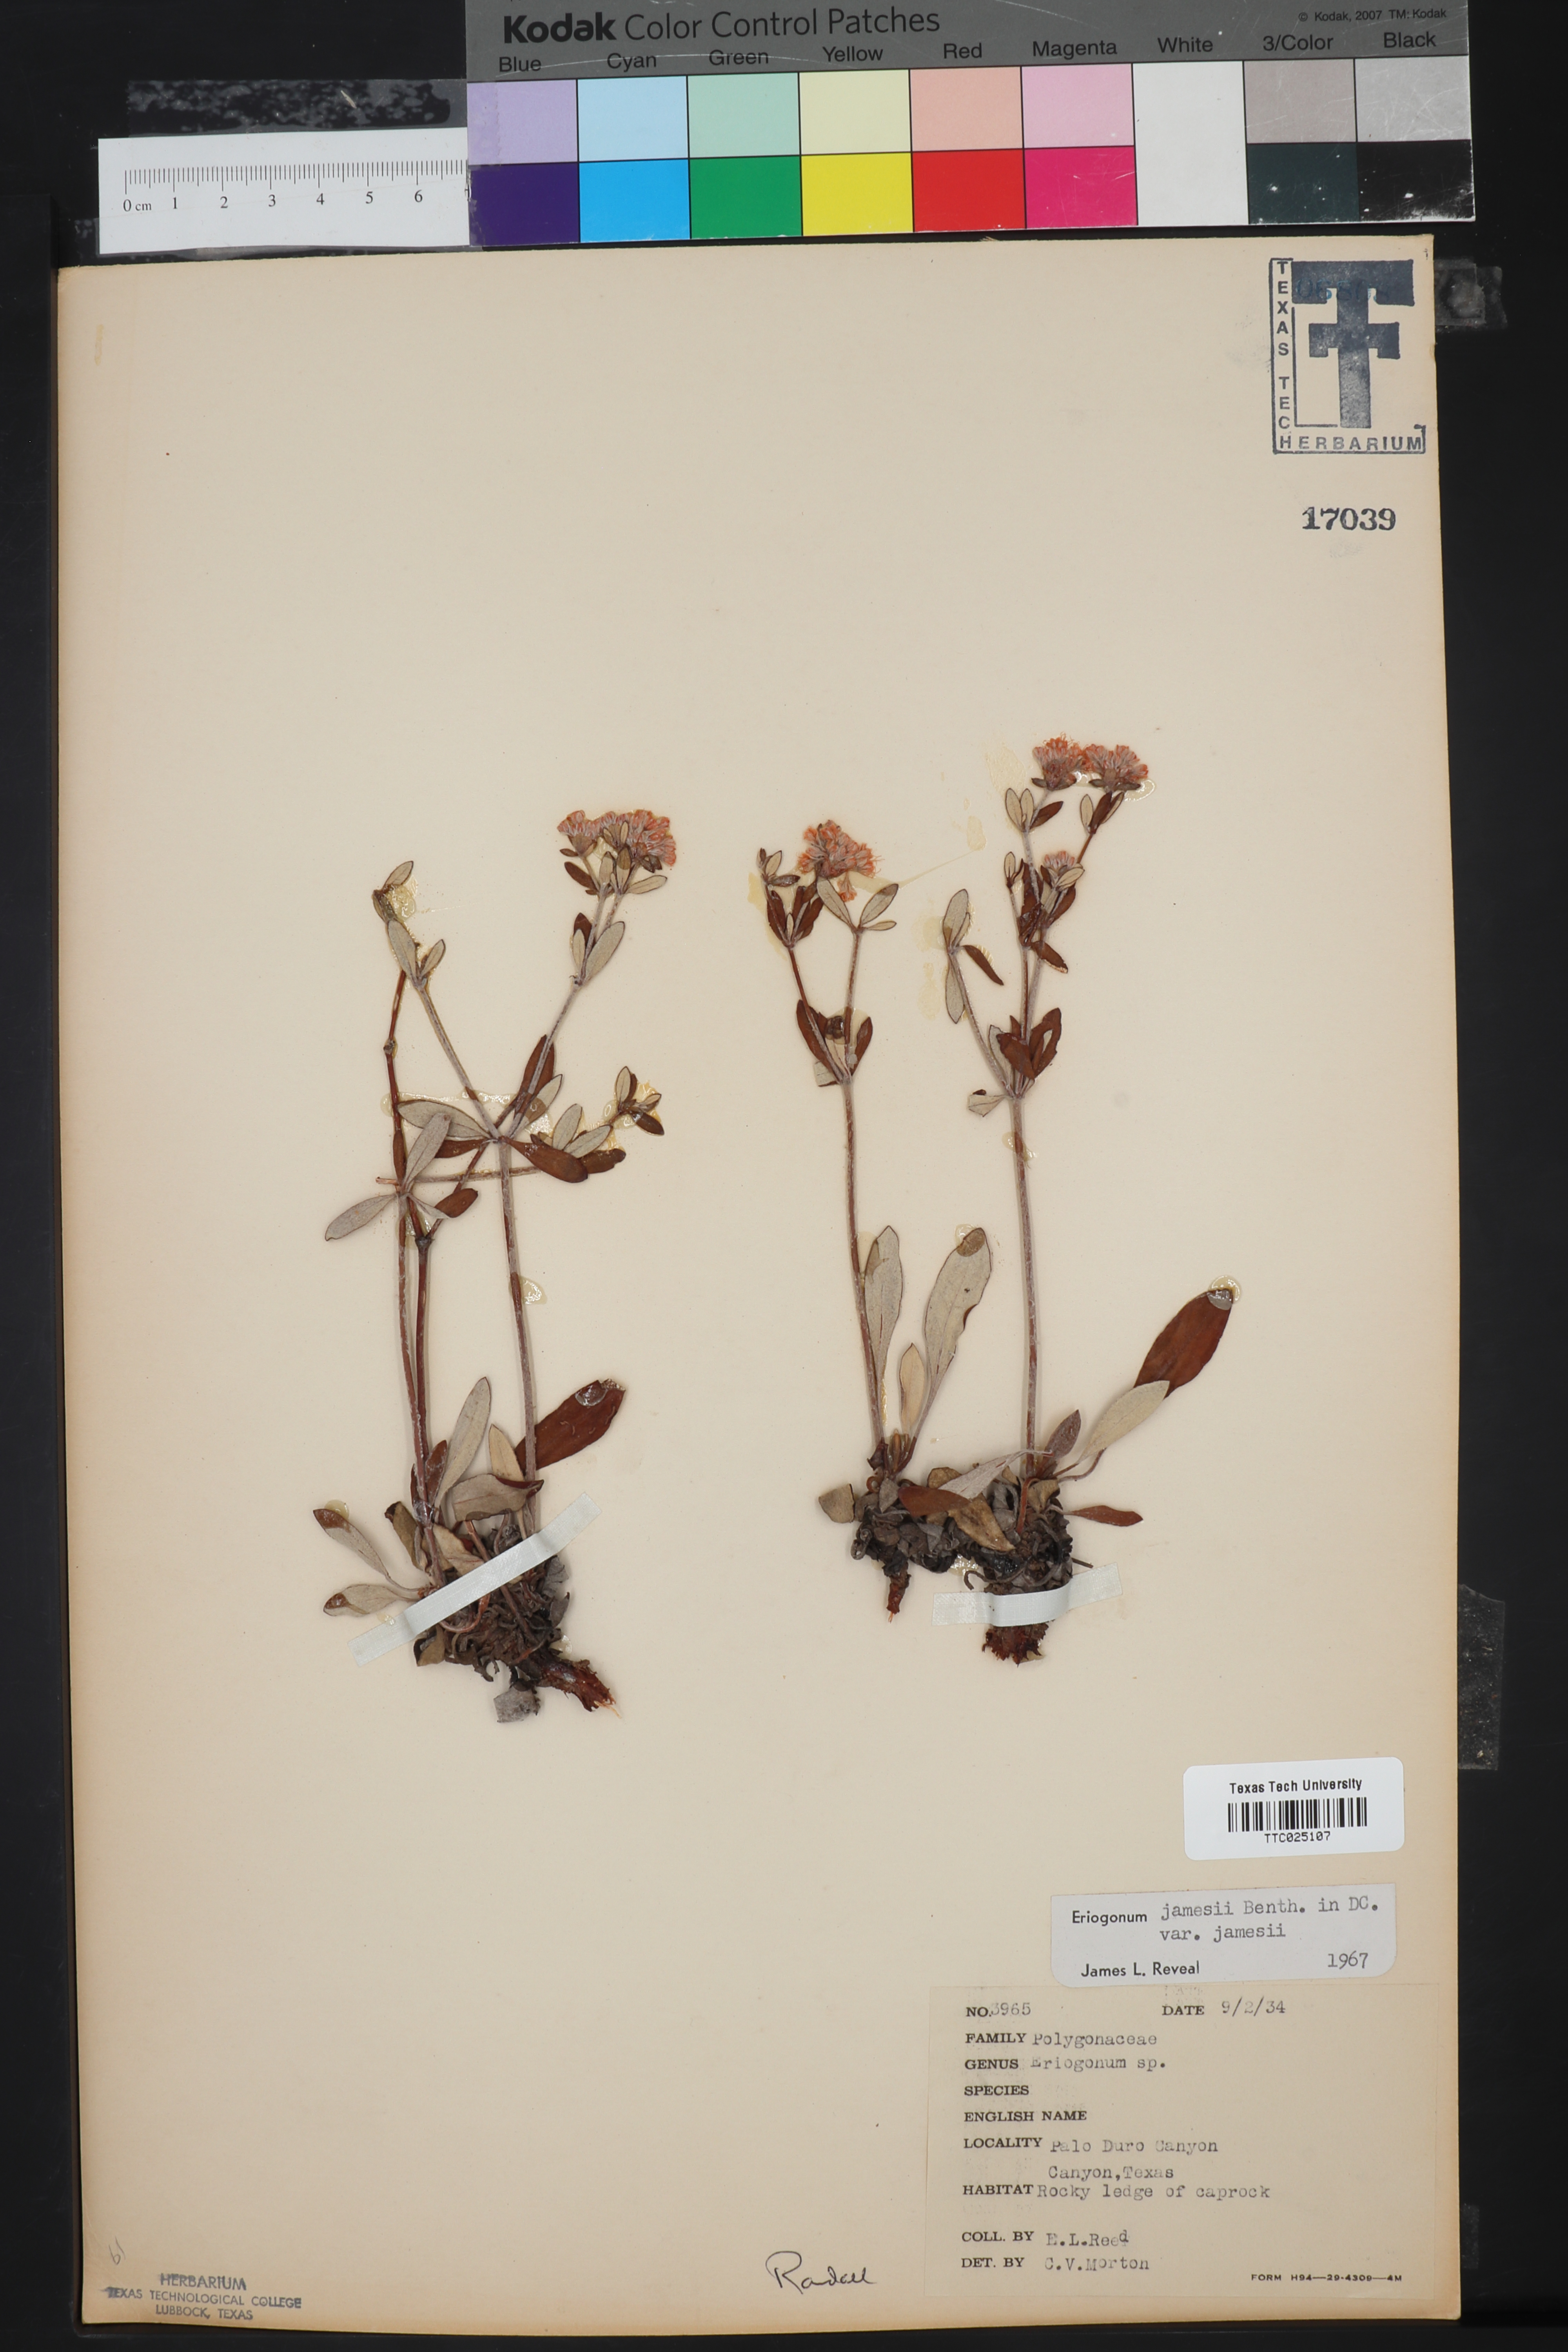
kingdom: Plantae
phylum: Tracheophyta
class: Magnoliopsida
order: Caryophyllales
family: Polygonaceae
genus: Eriogonum
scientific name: Eriogonum jamesii
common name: Antelope-sage
